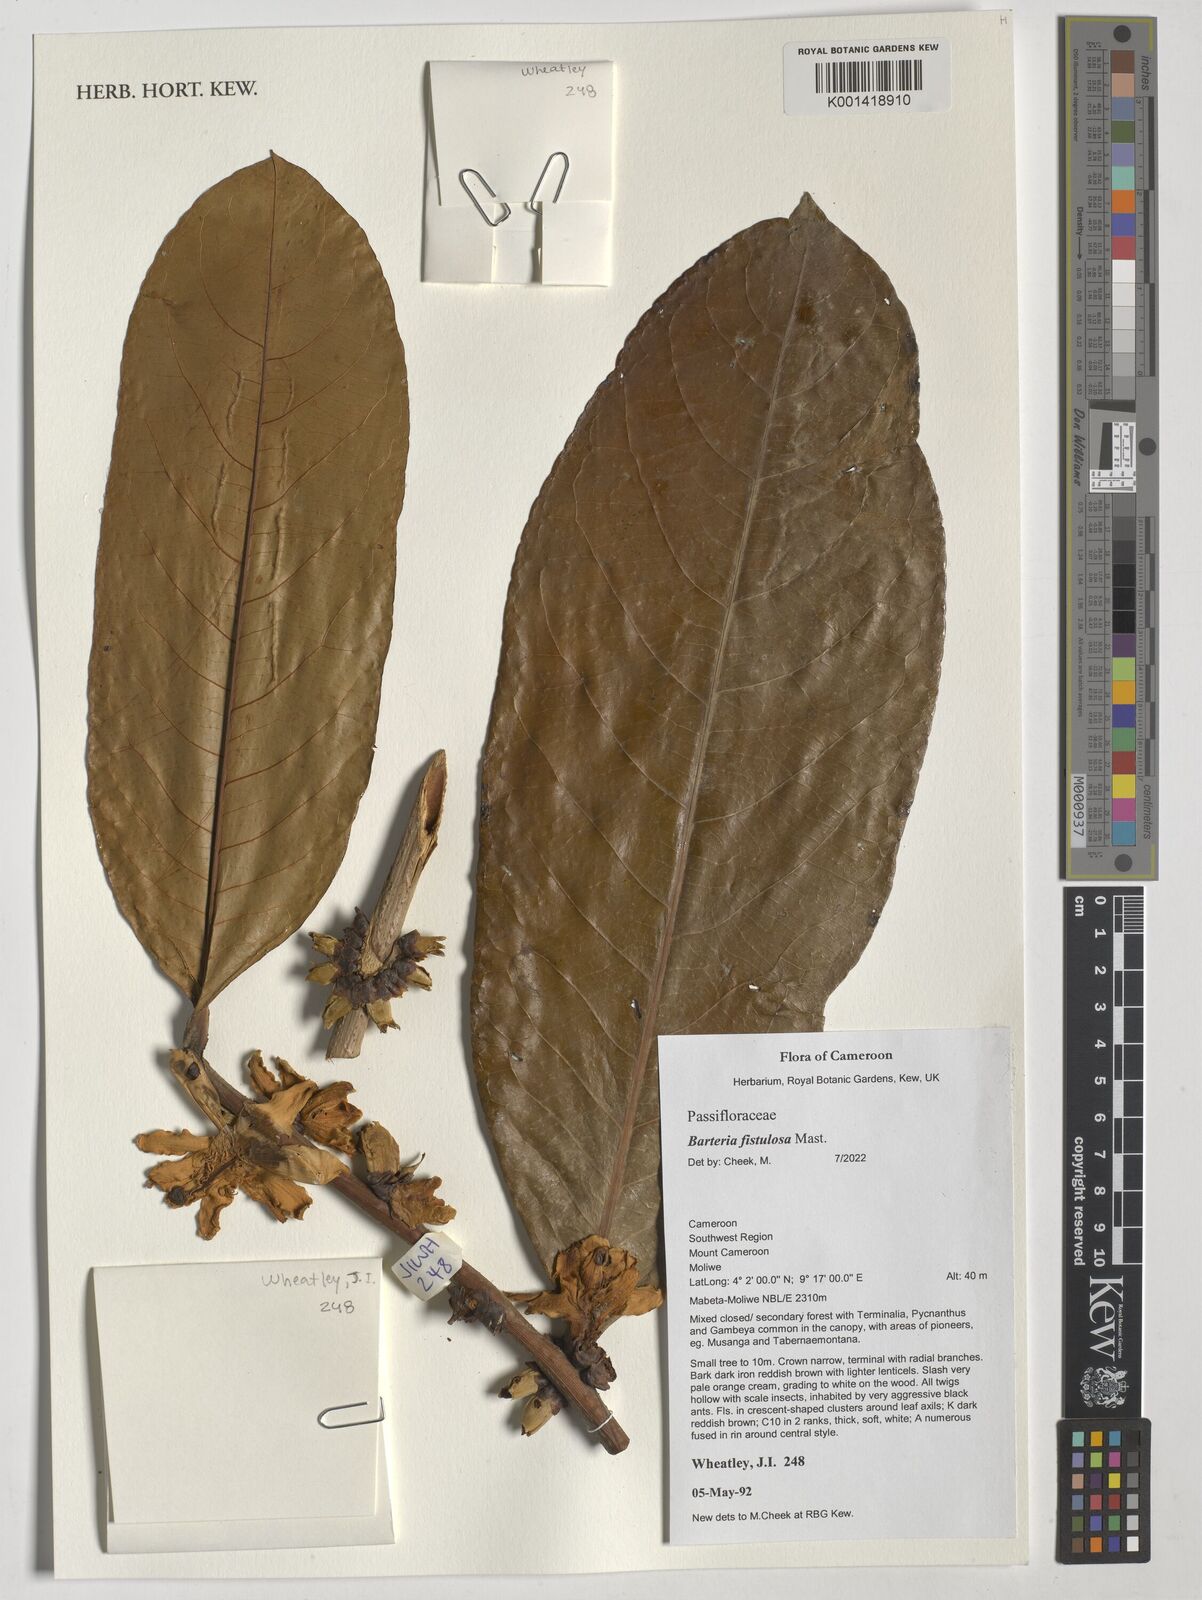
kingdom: Plantae
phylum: Tracheophyta
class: Magnoliopsida
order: Malpighiales
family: Passifloraceae
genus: Barteria
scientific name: Barteria fistulosa
